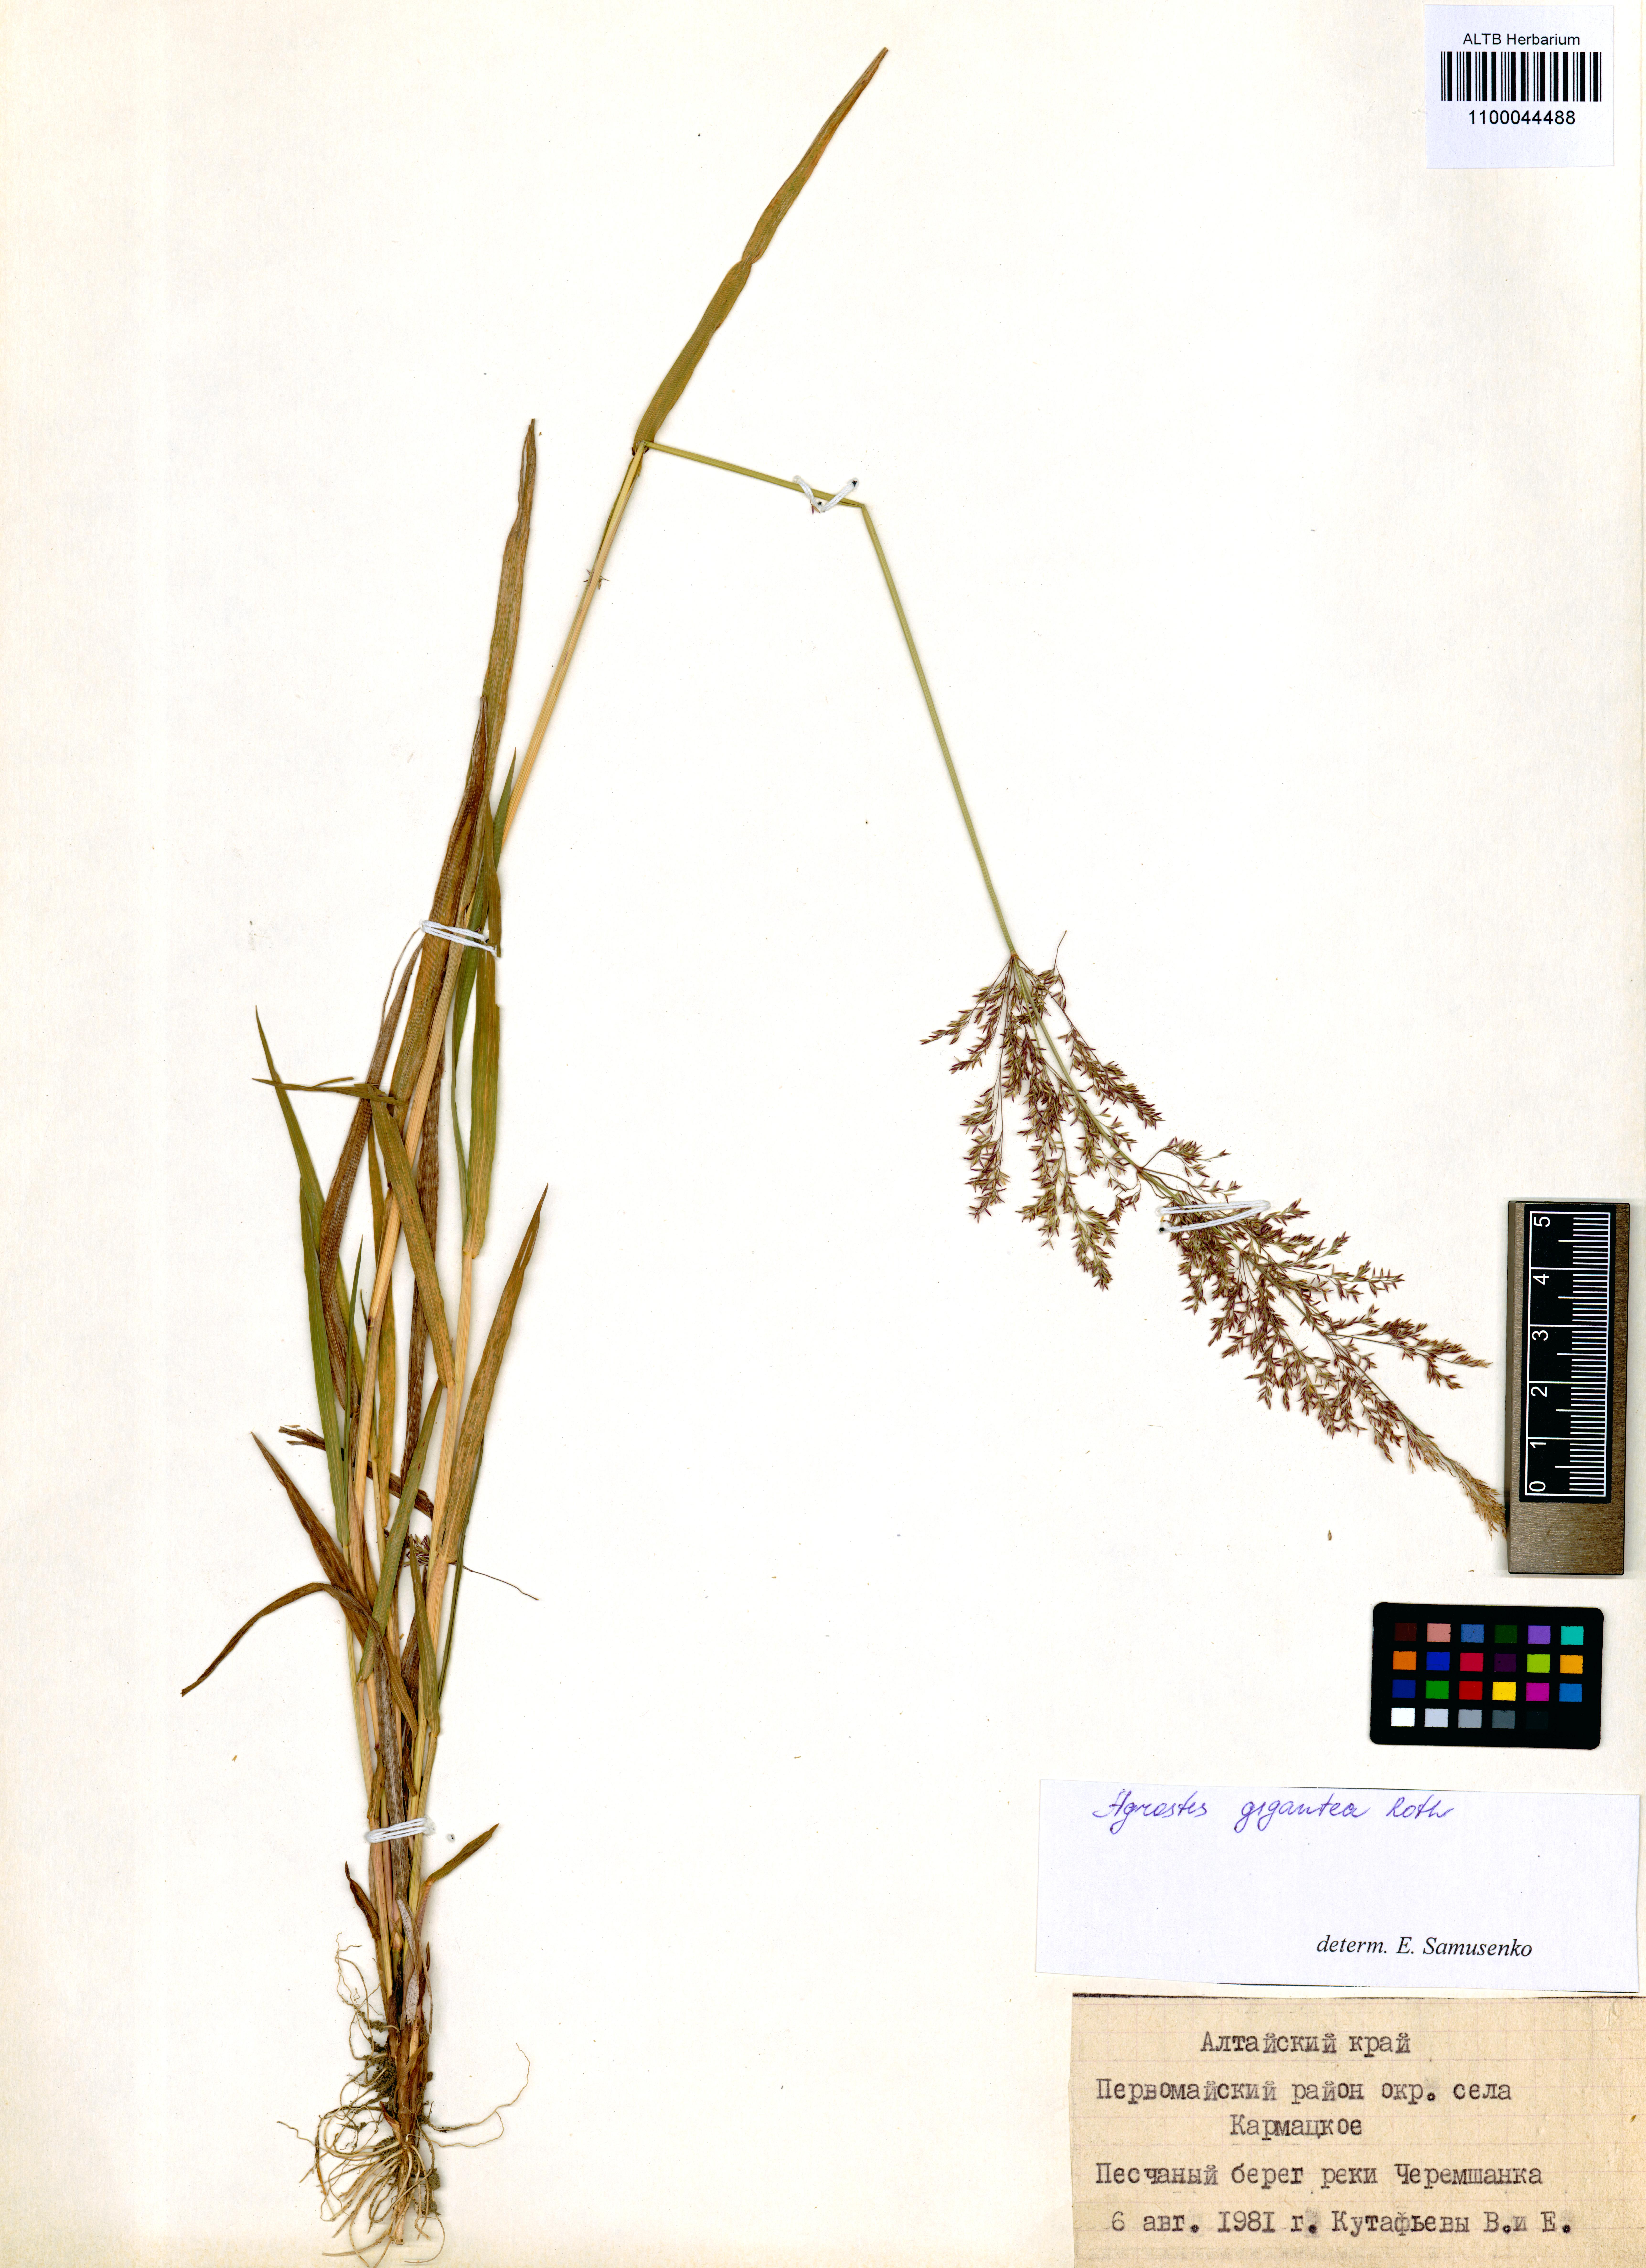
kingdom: Plantae
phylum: Tracheophyta
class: Liliopsida
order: Poales
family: Poaceae
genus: Agrostis
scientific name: Agrostis gigantea
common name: Black bent
